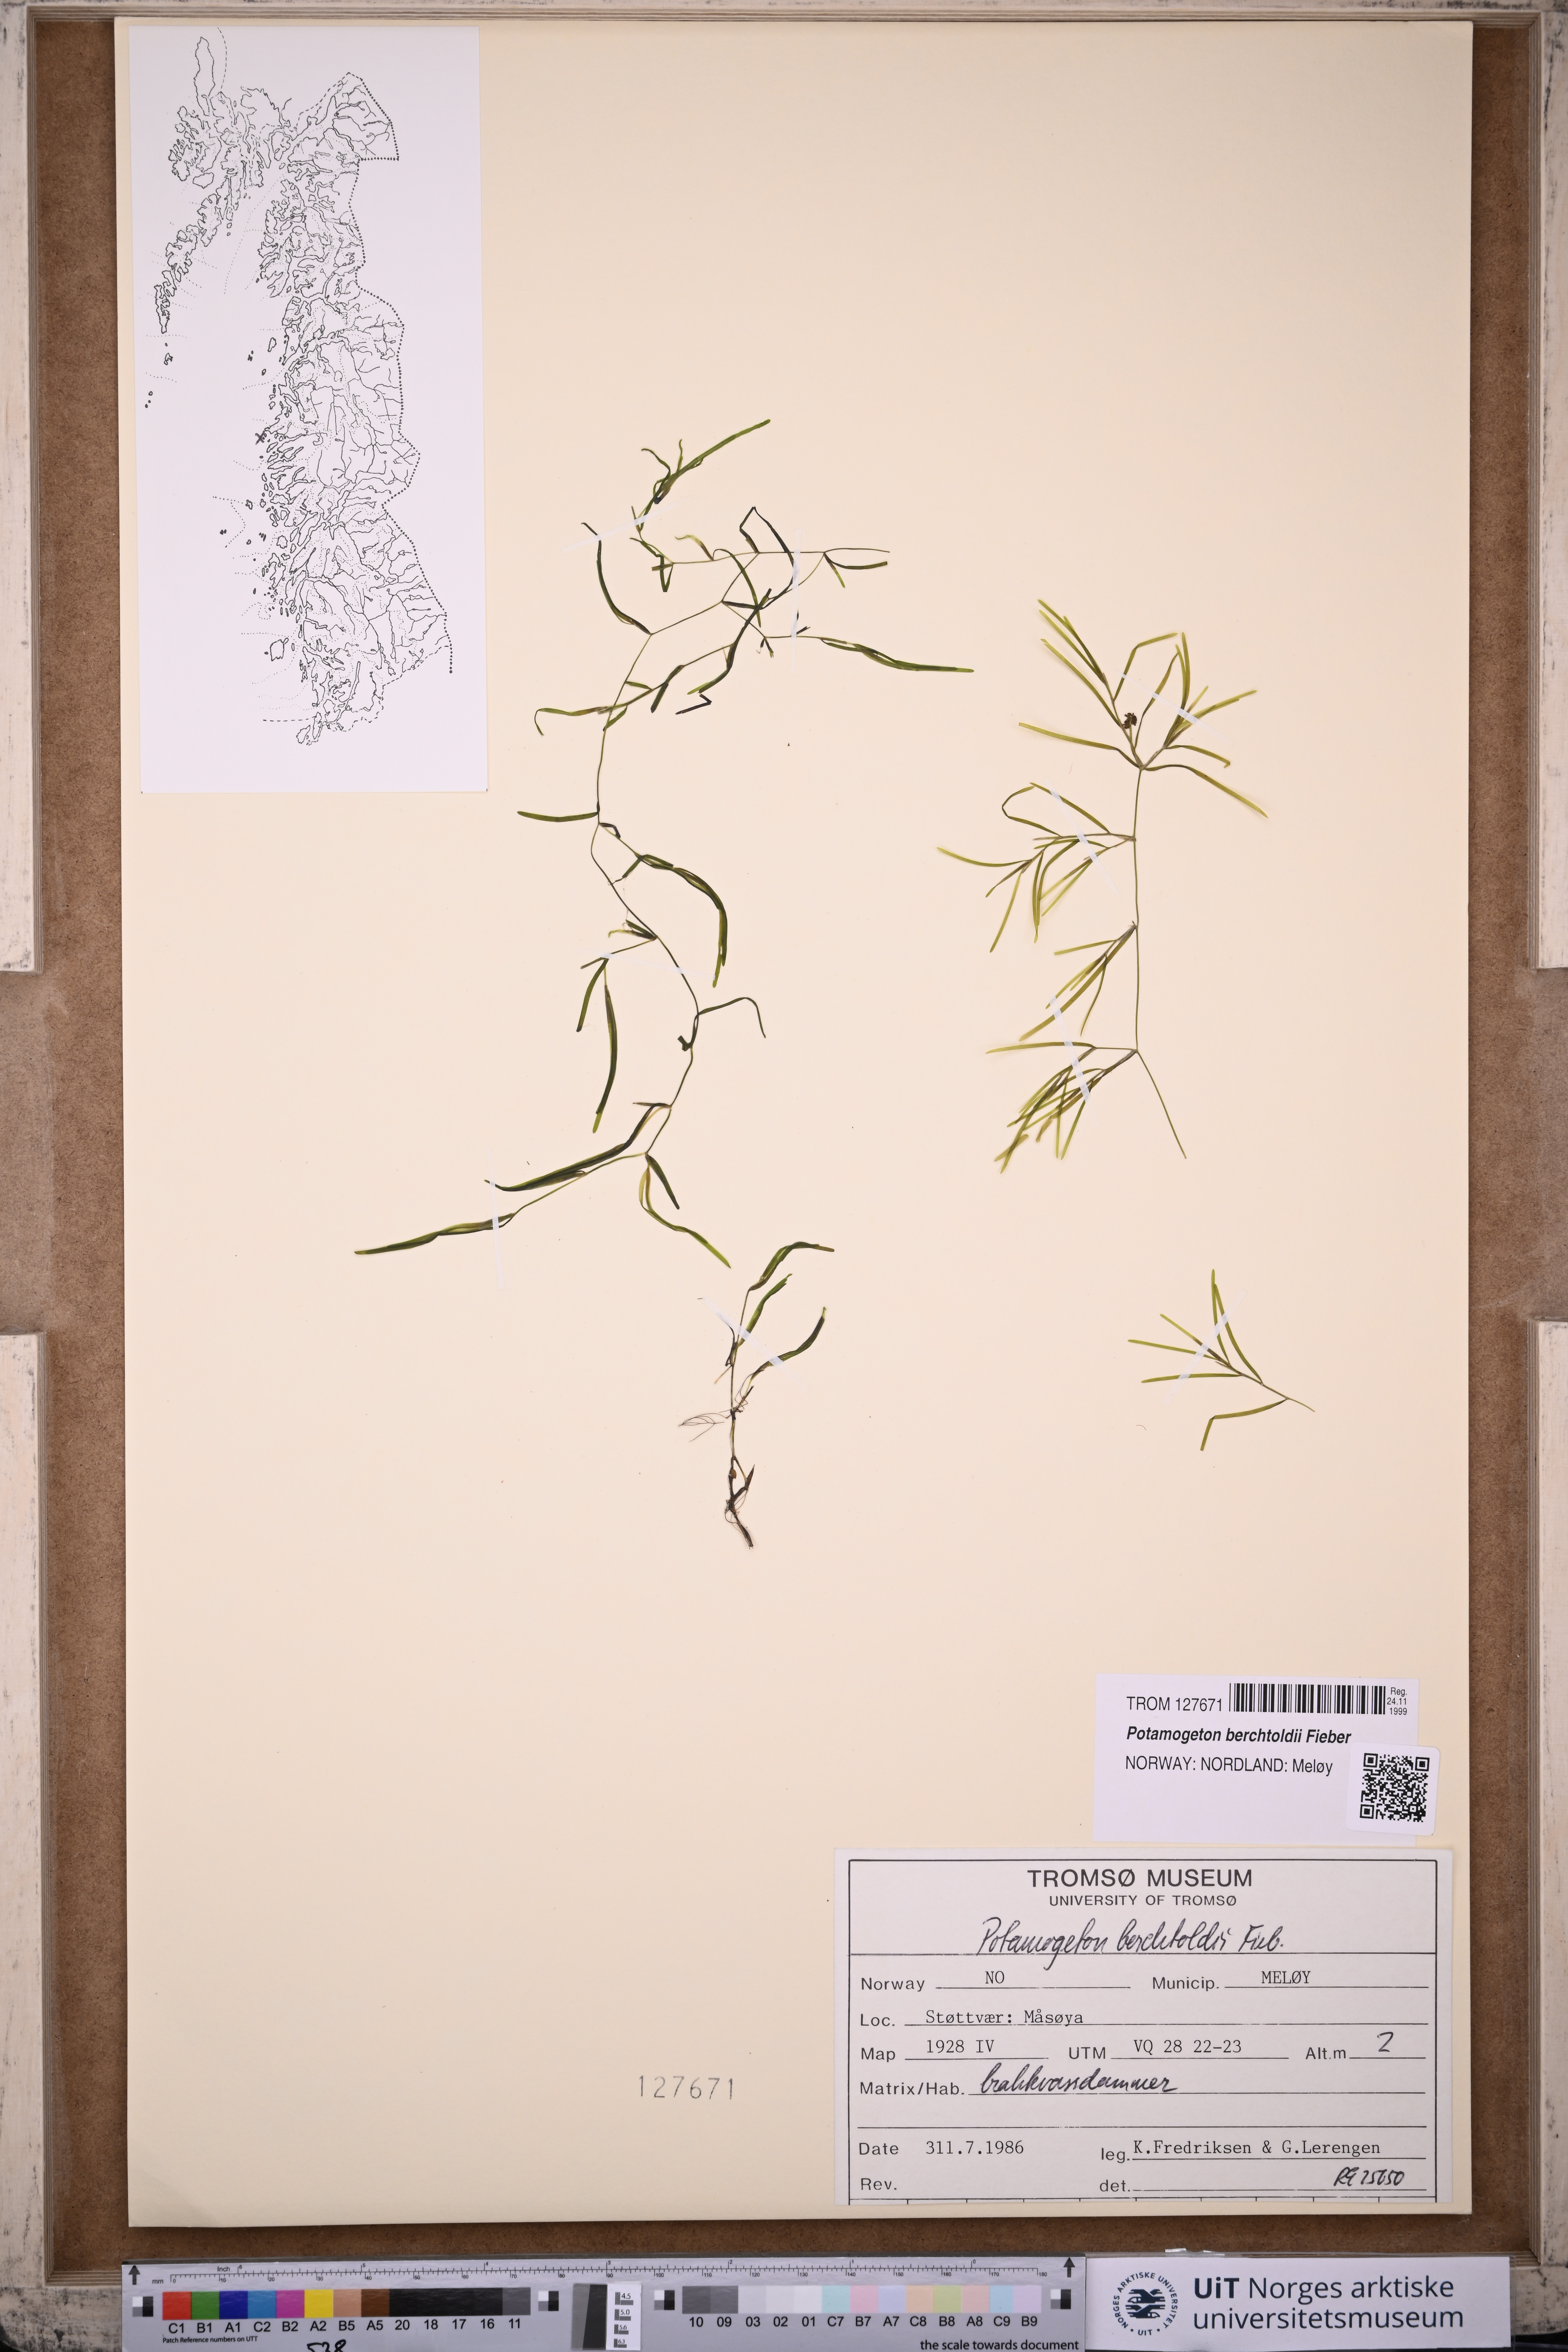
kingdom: Plantae
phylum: Tracheophyta
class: Liliopsida
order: Alismatales
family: Potamogetonaceae
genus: Potamogeton
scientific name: Potamogeton berchtoldii
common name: Small pondweed
